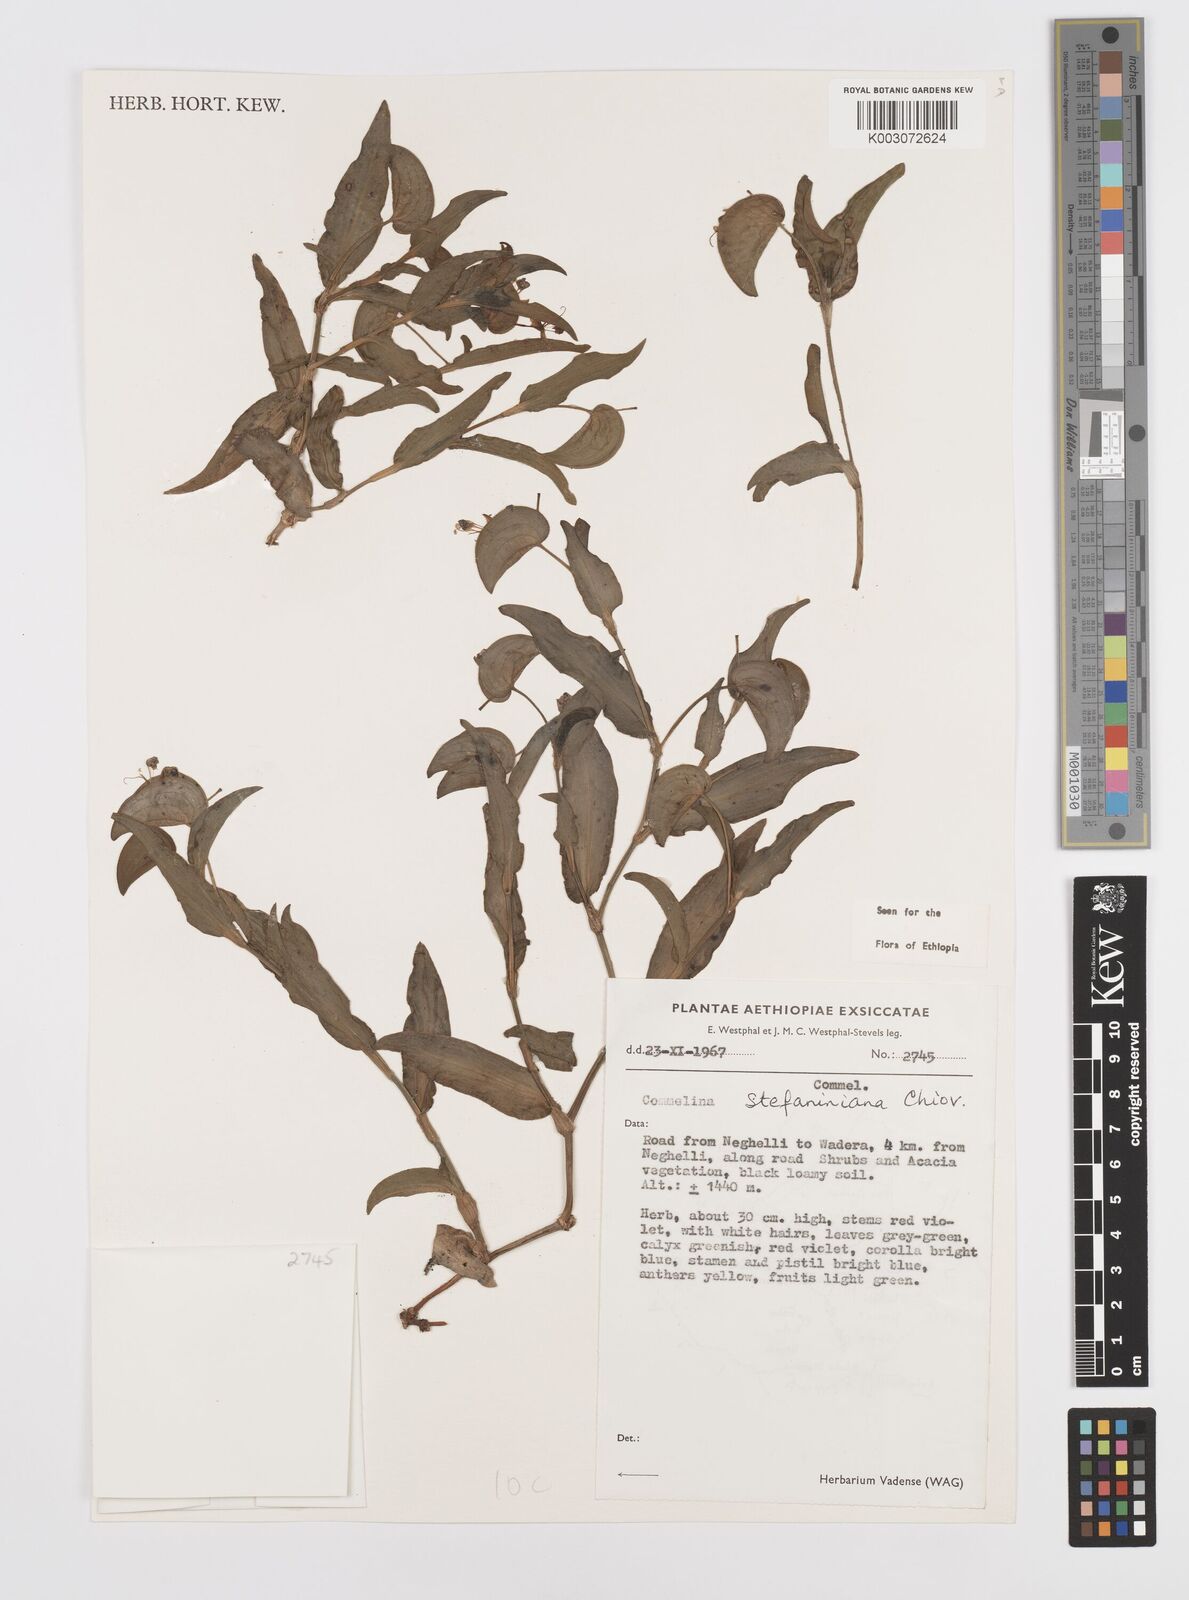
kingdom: Plantae
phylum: Tracheophyta
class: Liliopsida
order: Commelinales
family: Commelinaceae
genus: Commelina
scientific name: Commelina stefaniniana
